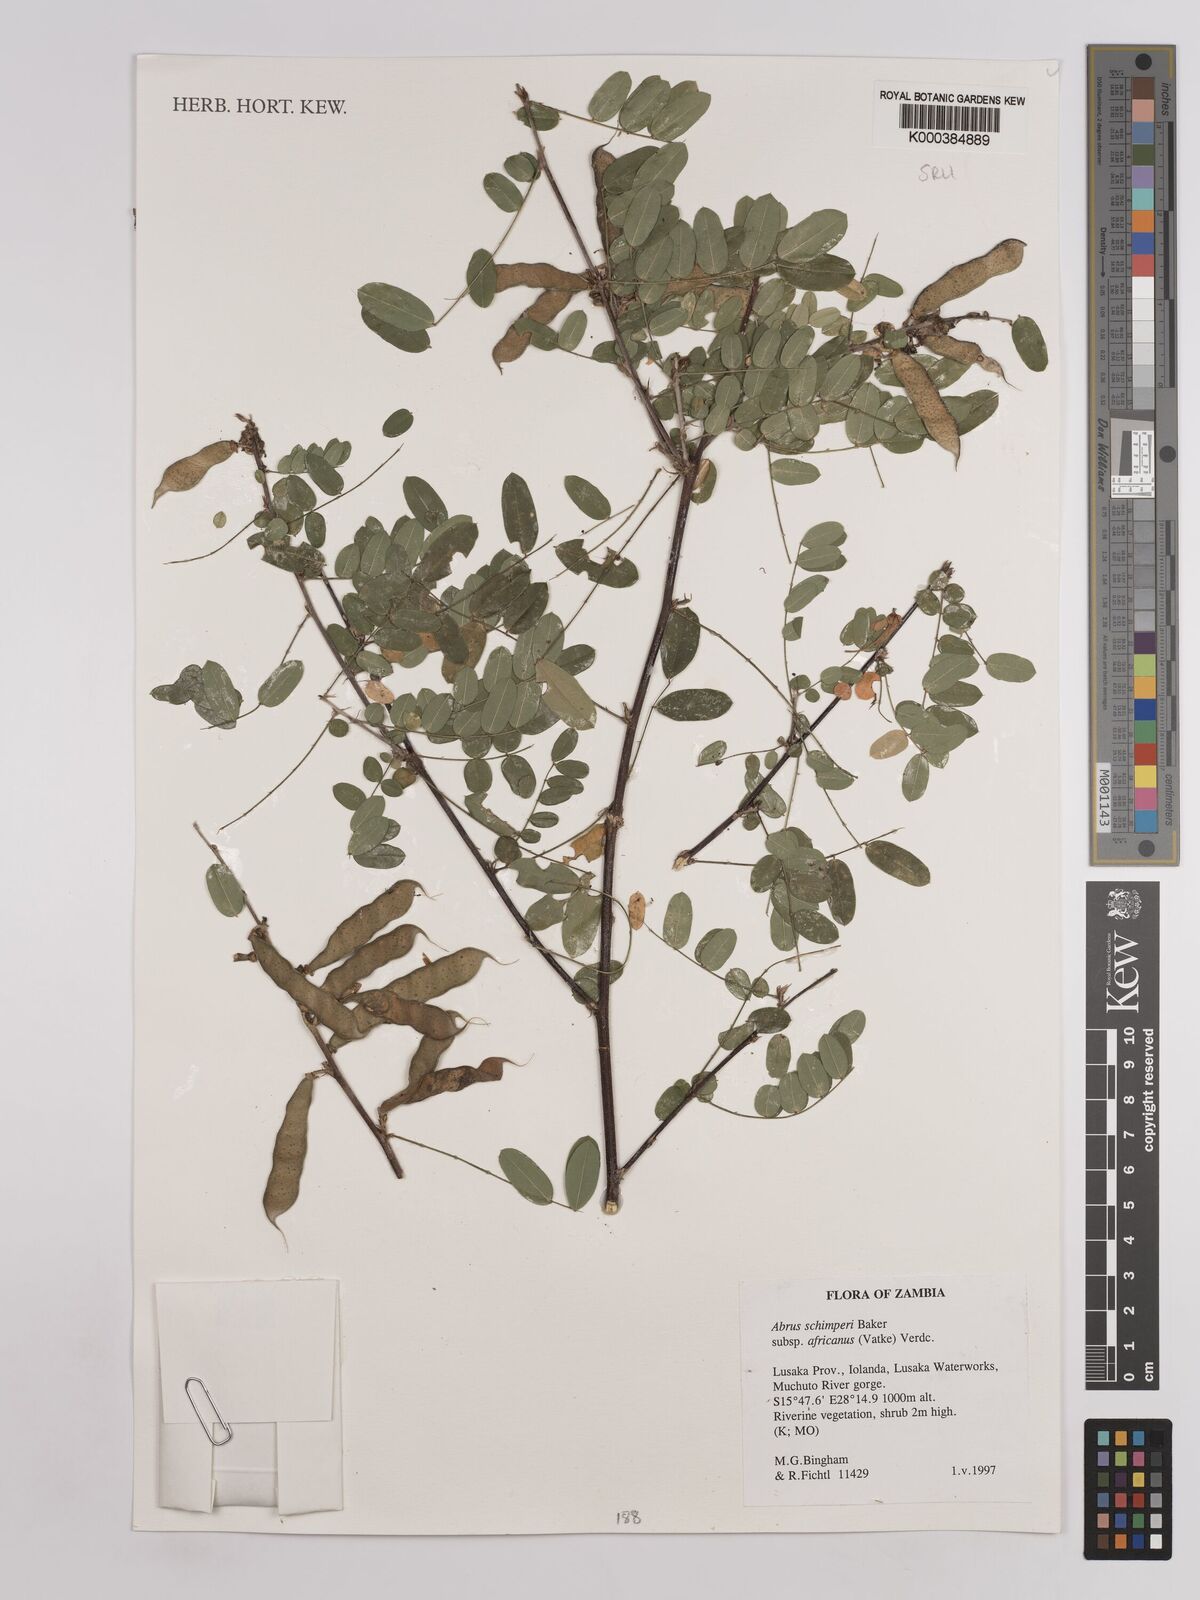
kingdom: Plantae
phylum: Tracheophyta
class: Magnoliopsida
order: Fabales
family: Fabaceae
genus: Abrus
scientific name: Abrus
